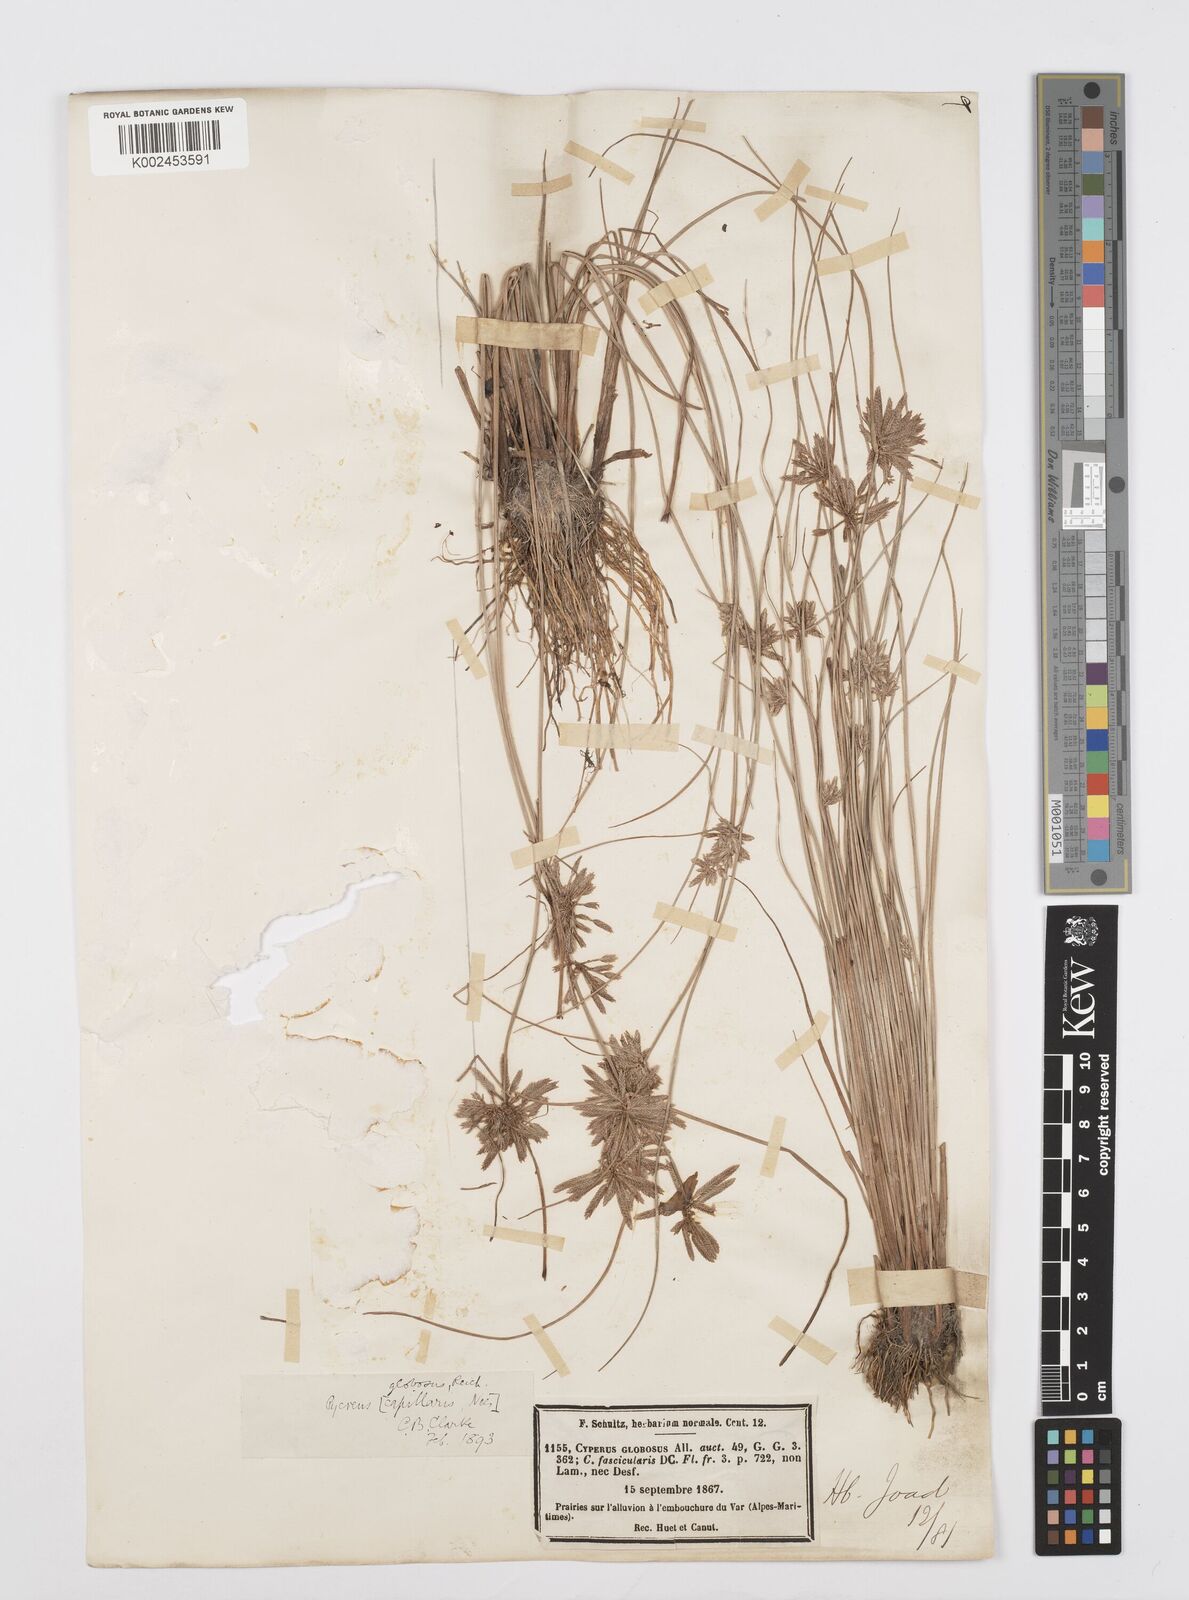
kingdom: Plantae
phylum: Tracheophyta
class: Liliopsida
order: Poales
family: Cyperaceae
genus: Cyperus
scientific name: Cyperus flavidus
